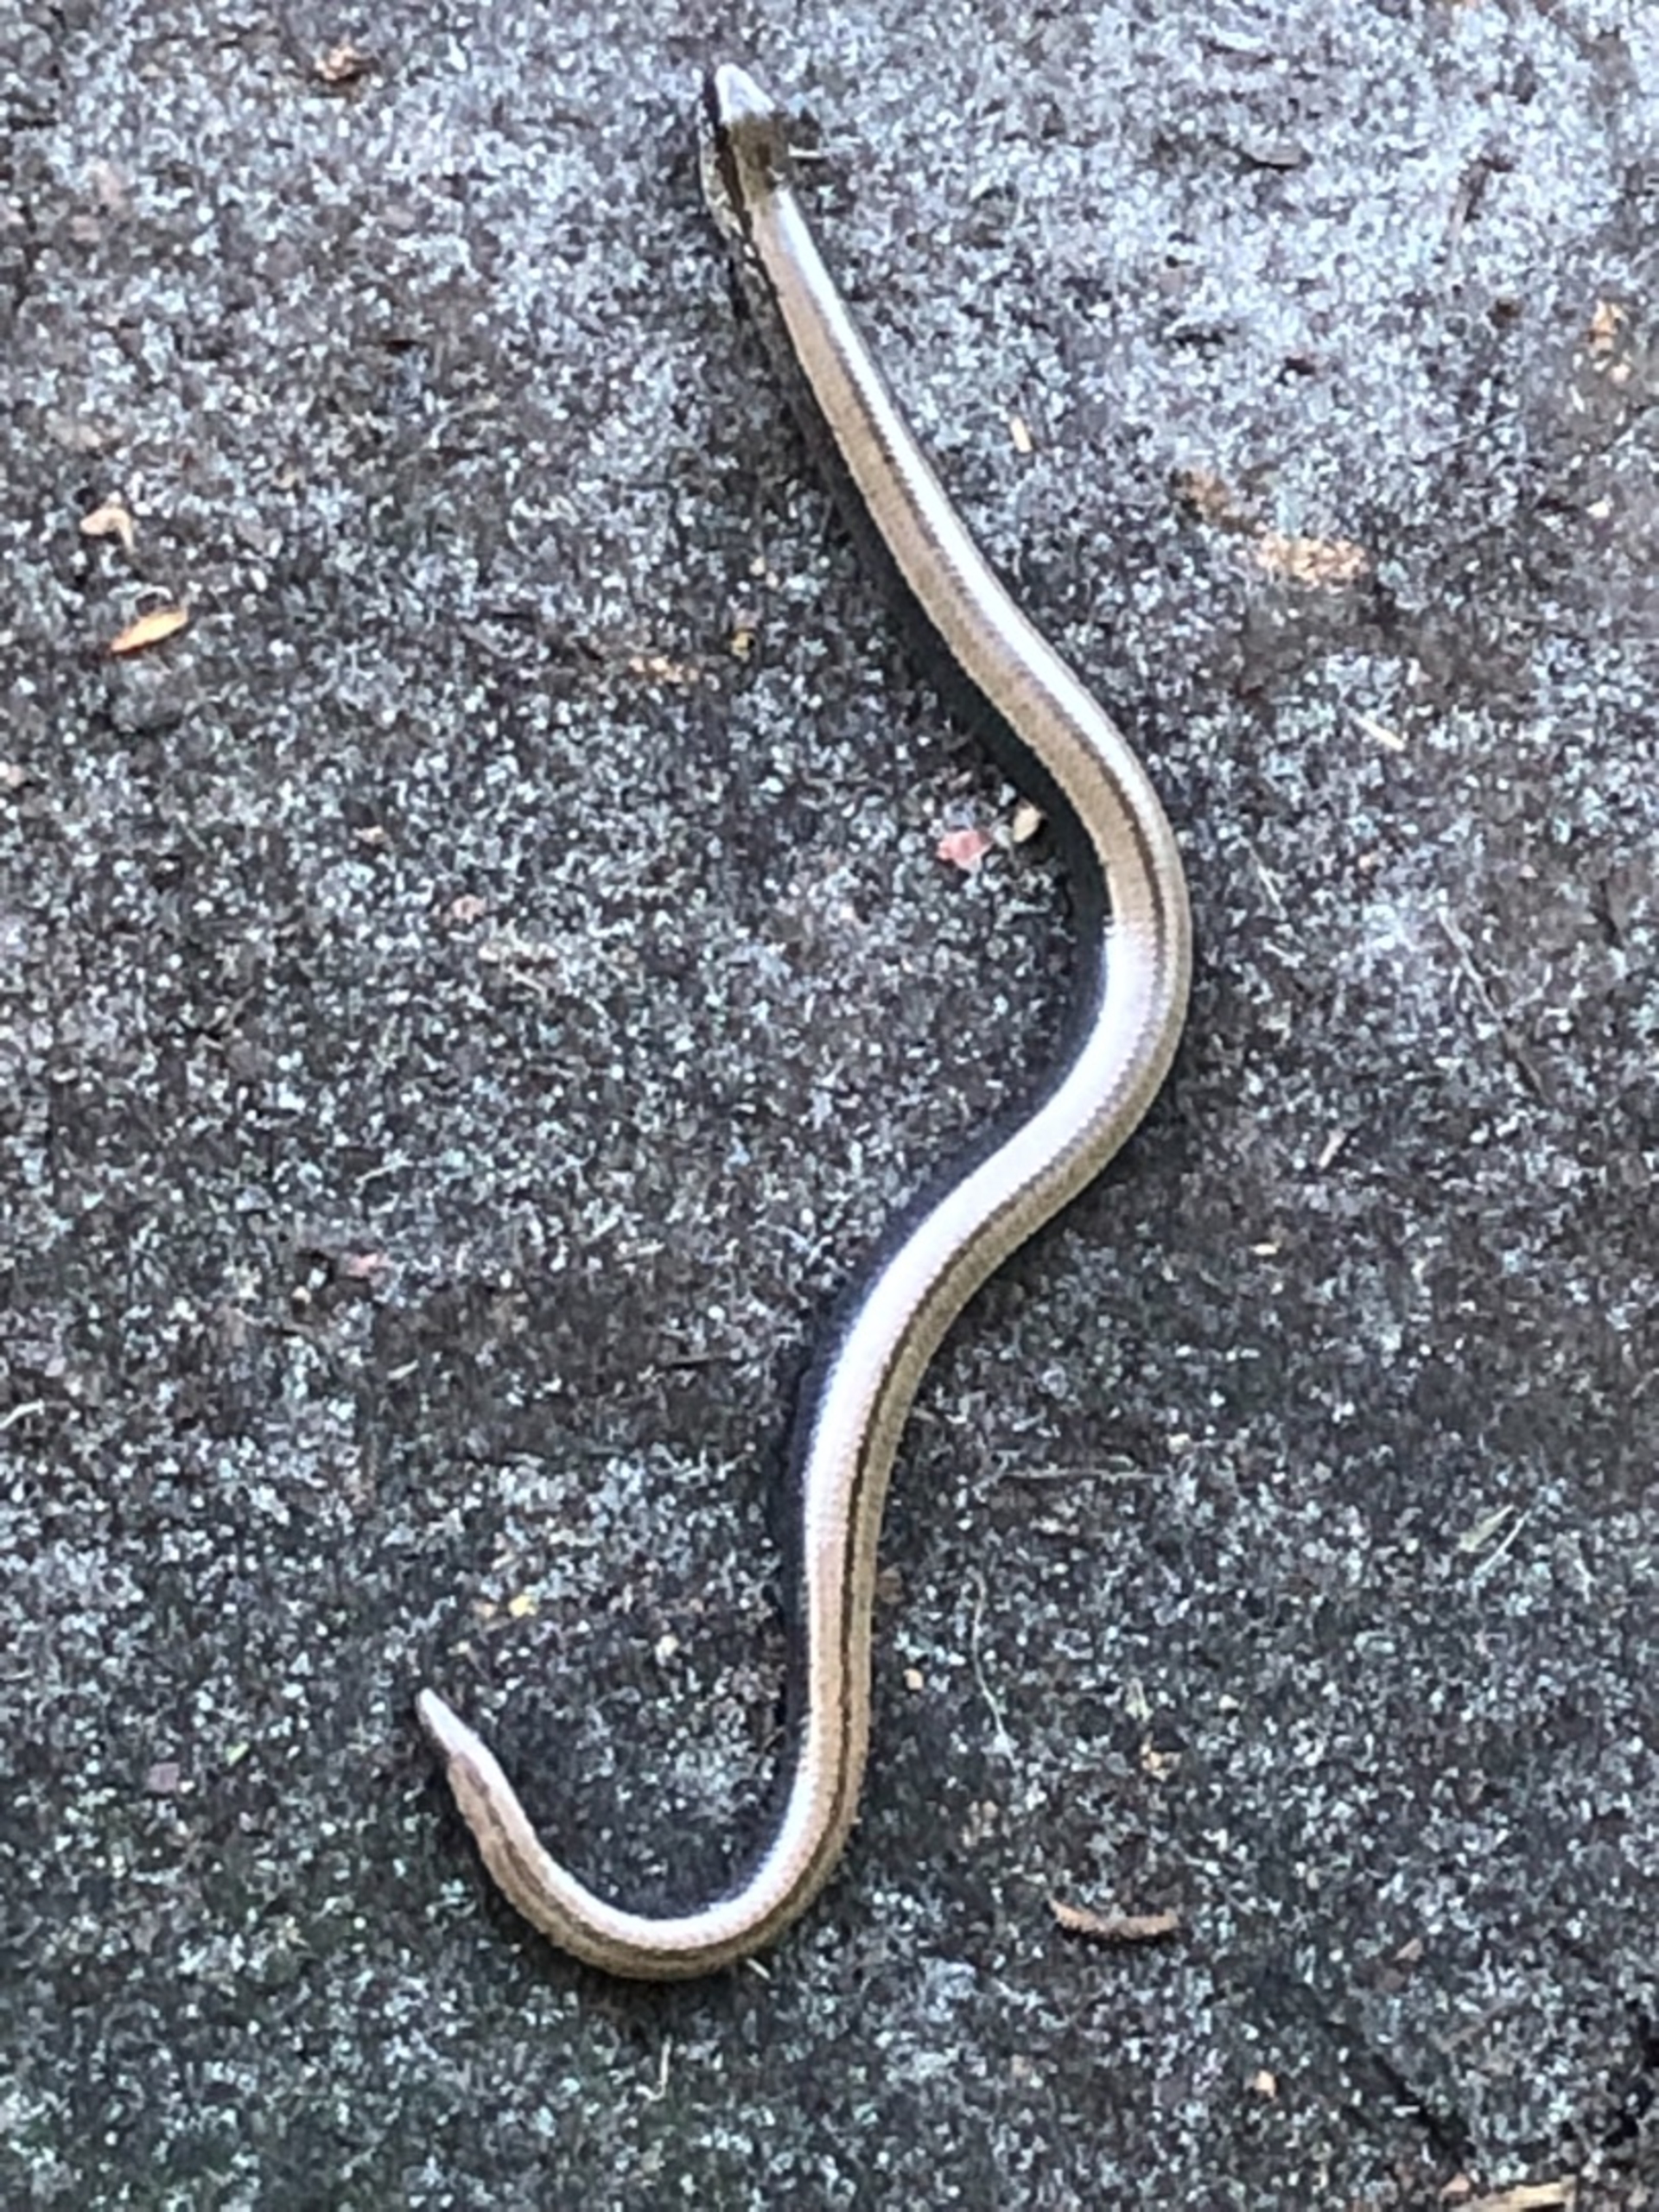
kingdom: Animalia
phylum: Chordata
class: Squamata
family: Anguidae
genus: Anguis
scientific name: Anguis fragilis
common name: Stålorm
